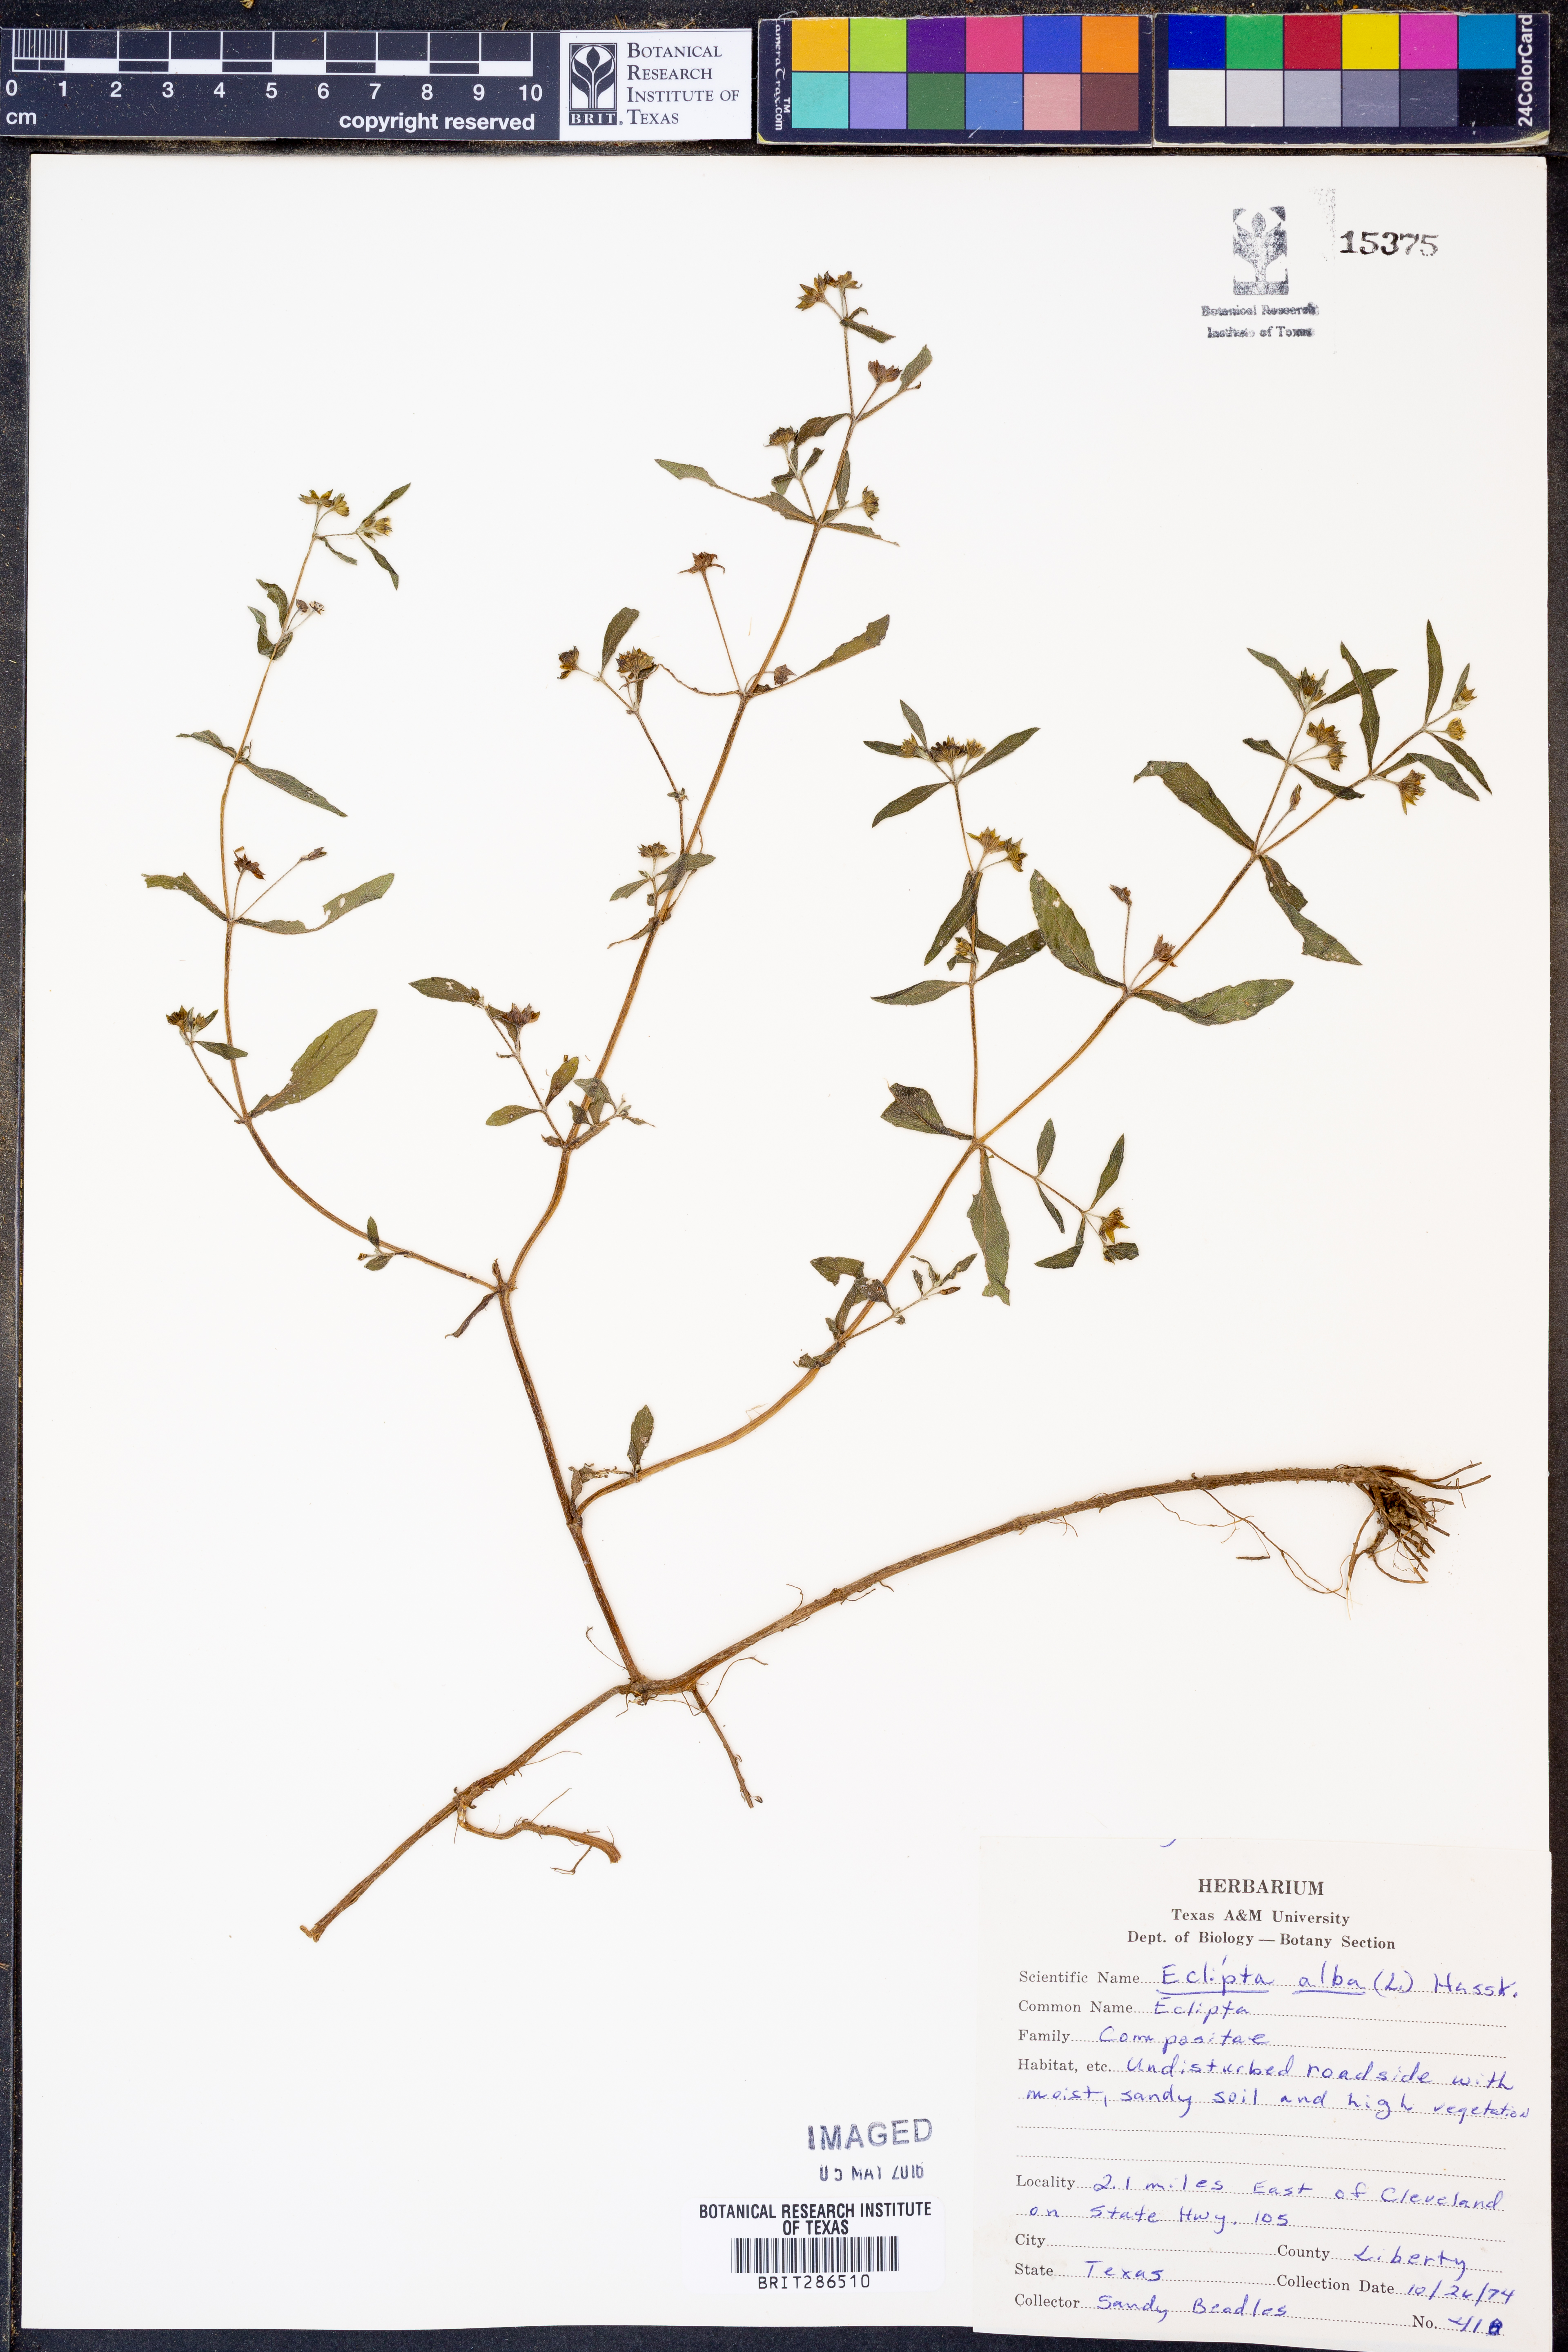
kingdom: Plantae
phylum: Tracheophyta
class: Magnoliopsida
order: Asterales
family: Asteraceae
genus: Eclipta
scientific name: Eclipta alba
